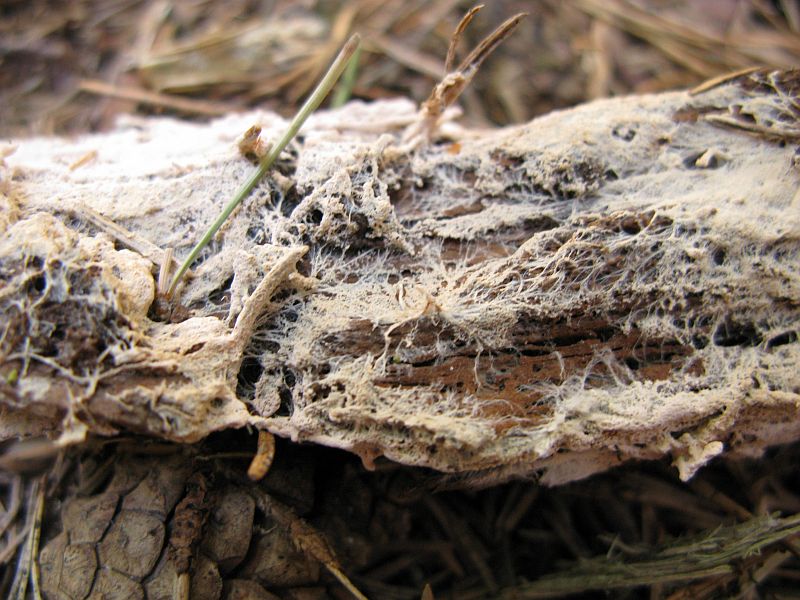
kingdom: Fungi
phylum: Basidiomycota
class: Agaricomycetes
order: Corticiales
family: Corticiaceae
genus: Corticium
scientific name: Corticium boreoroseum
